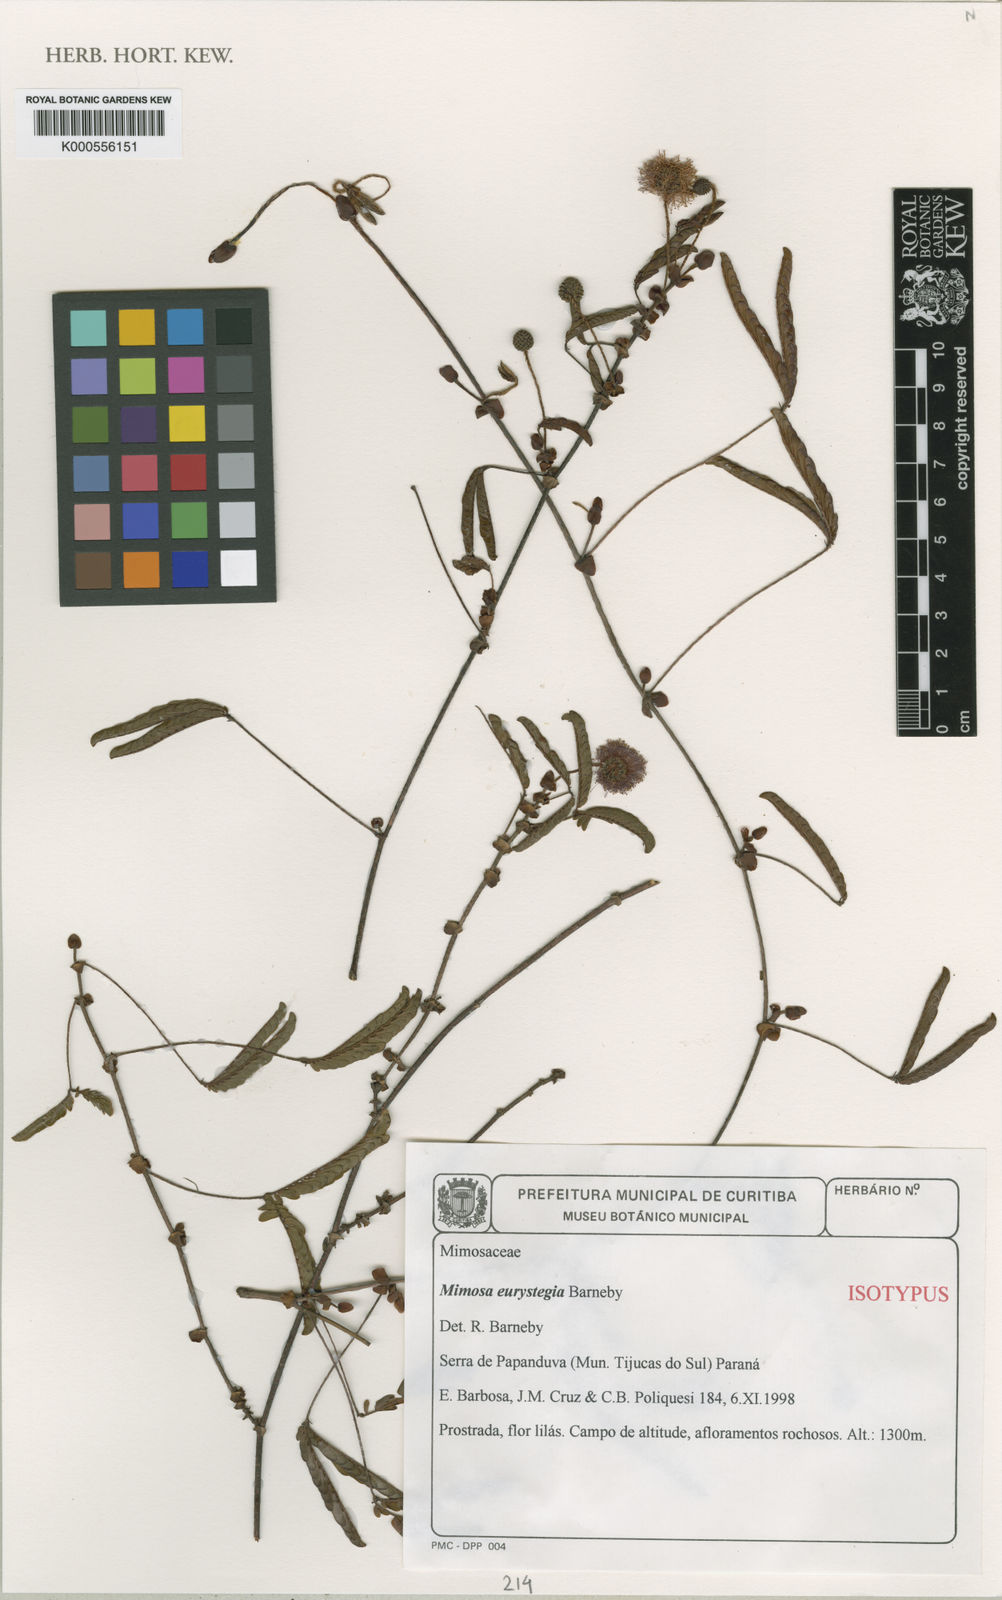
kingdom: Plantae
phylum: Tracheophyta
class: Magnoliopsida
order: Fabales
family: Fabaceae
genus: Mimosa
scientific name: Mimosa eurystegia
